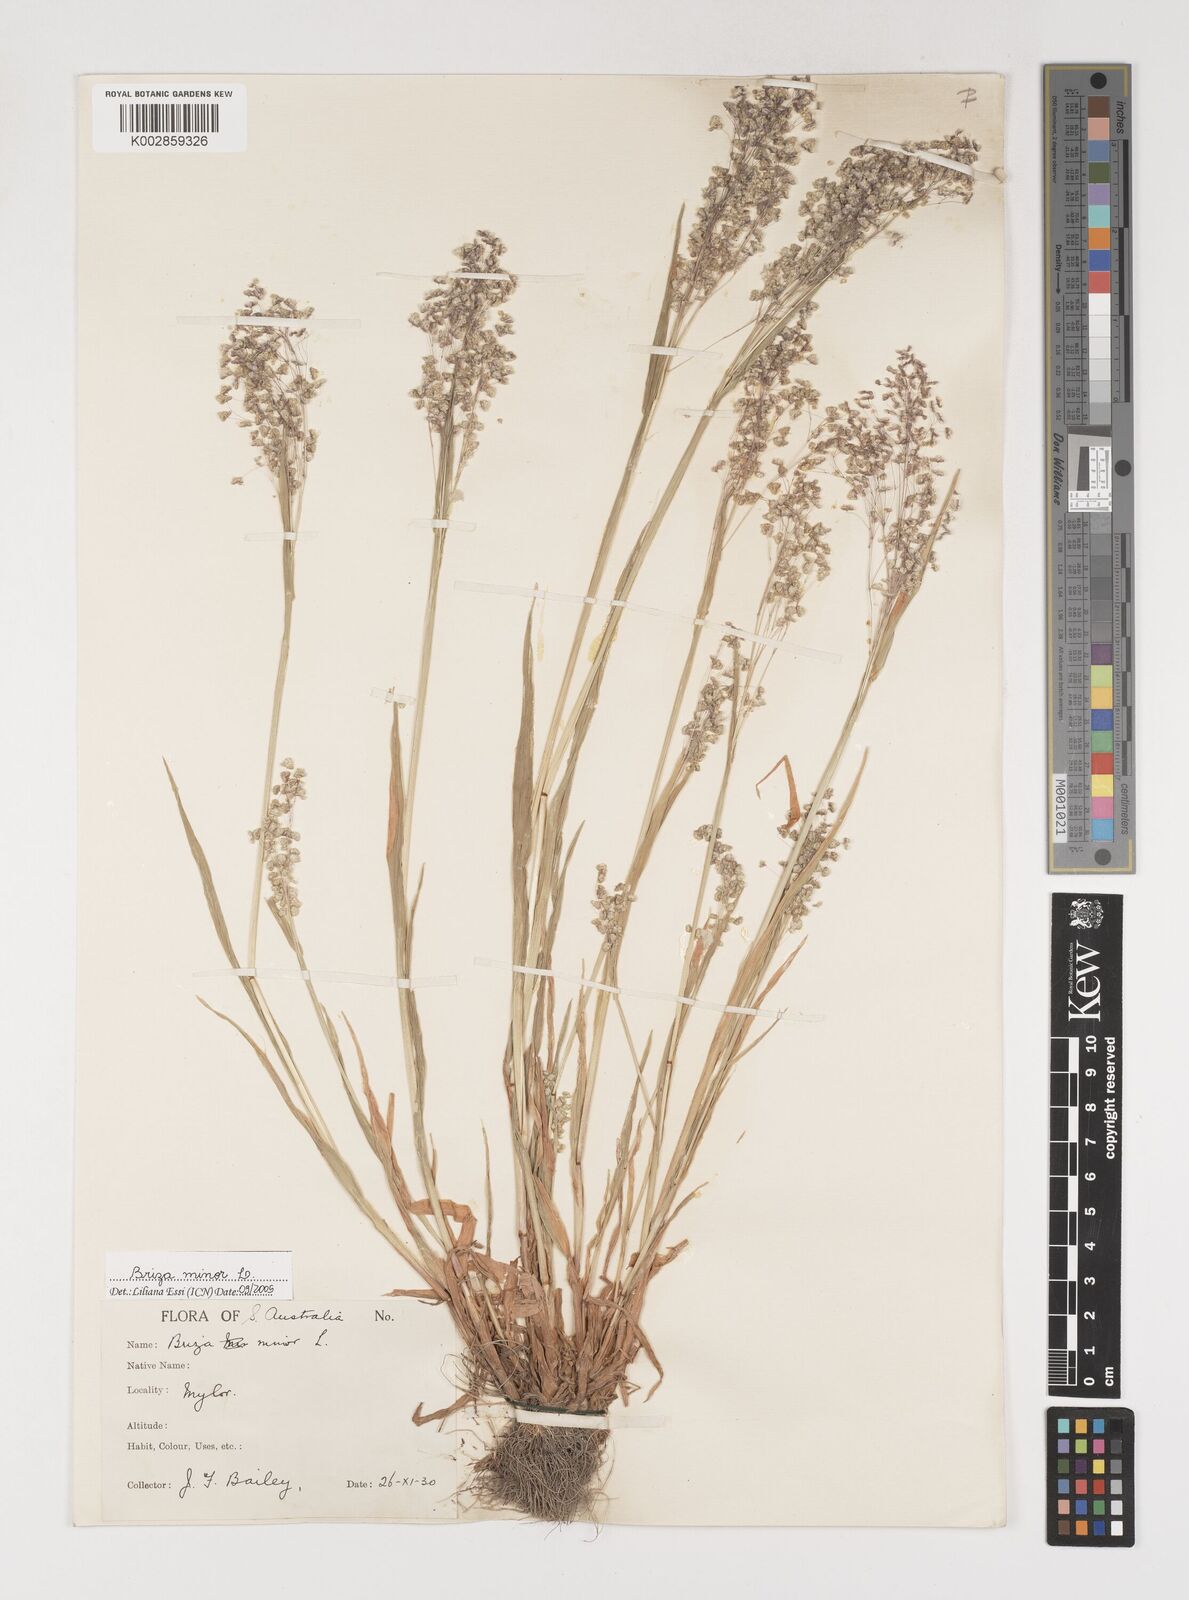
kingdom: Plantae
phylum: Tracheophyta
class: Liliopsida
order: Poales
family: Poaceae
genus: Briza
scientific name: Briza minor
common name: Lesser quaking-grass
